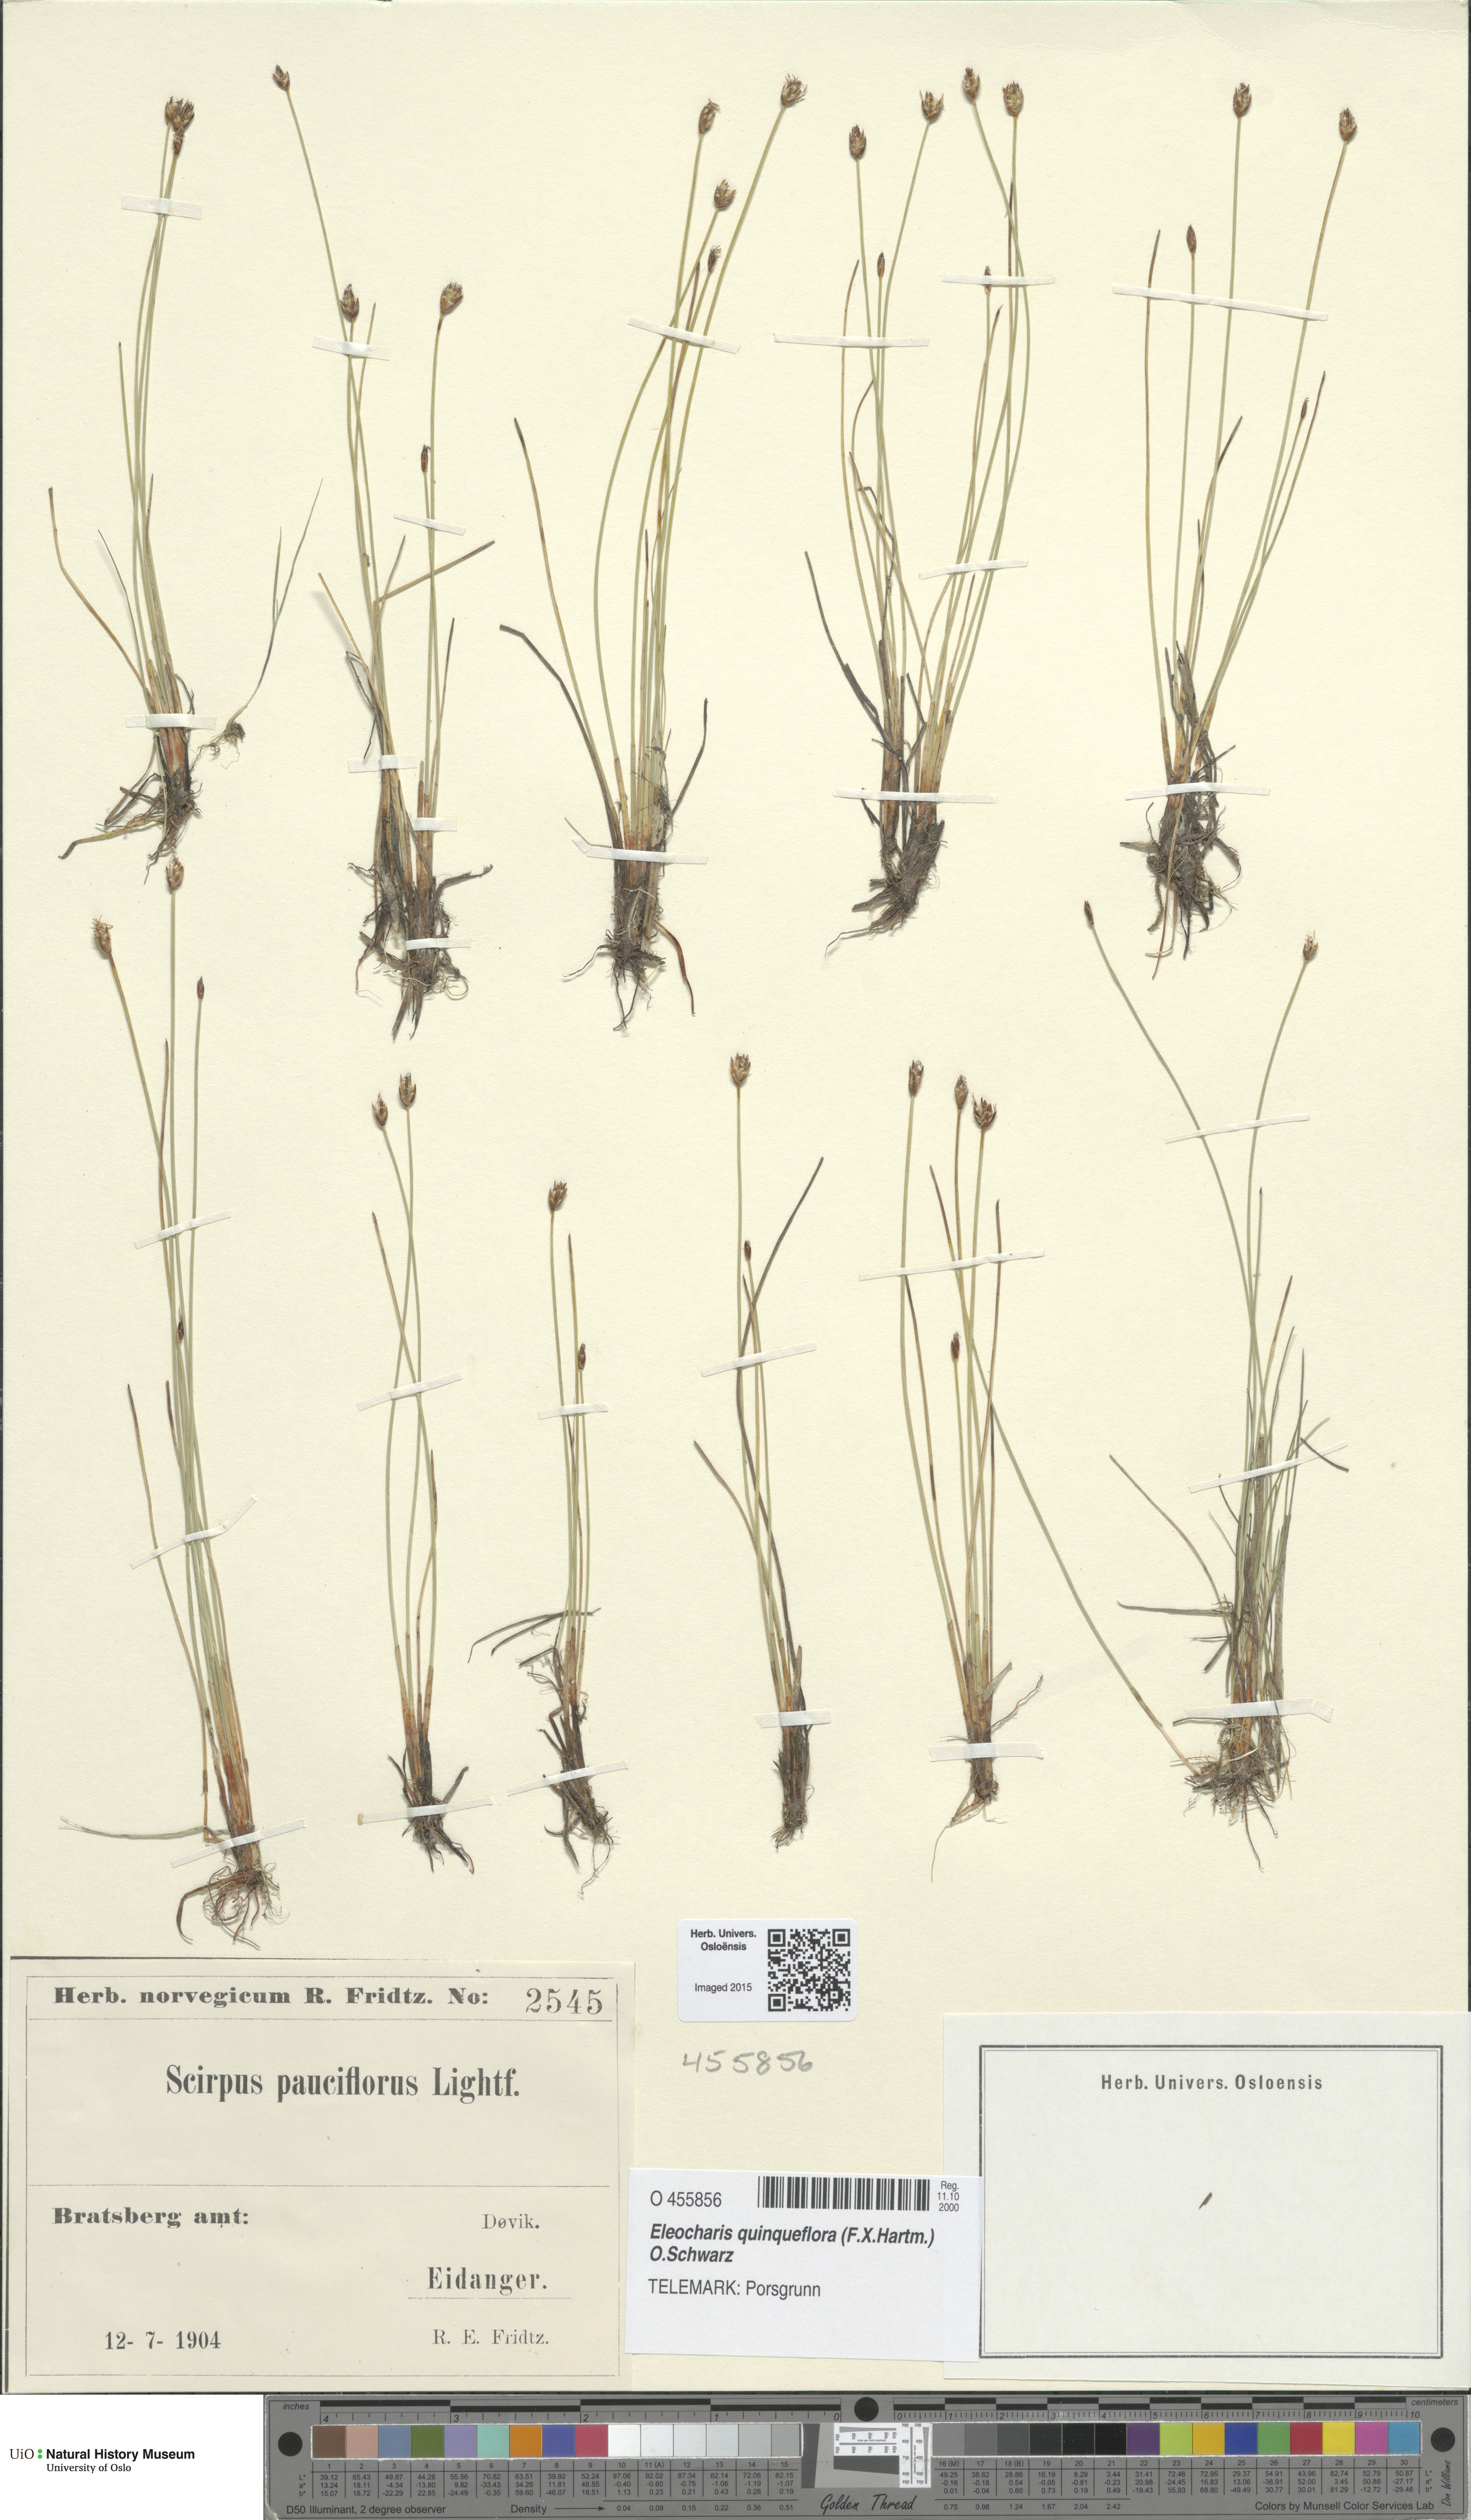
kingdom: Plantae
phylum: Tracheophyta
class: Liliopsida
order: Poales
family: Cyperaceae
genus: Eleocharis
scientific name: Eleocharis quinqueflora
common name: Few-flowered spike-rush
